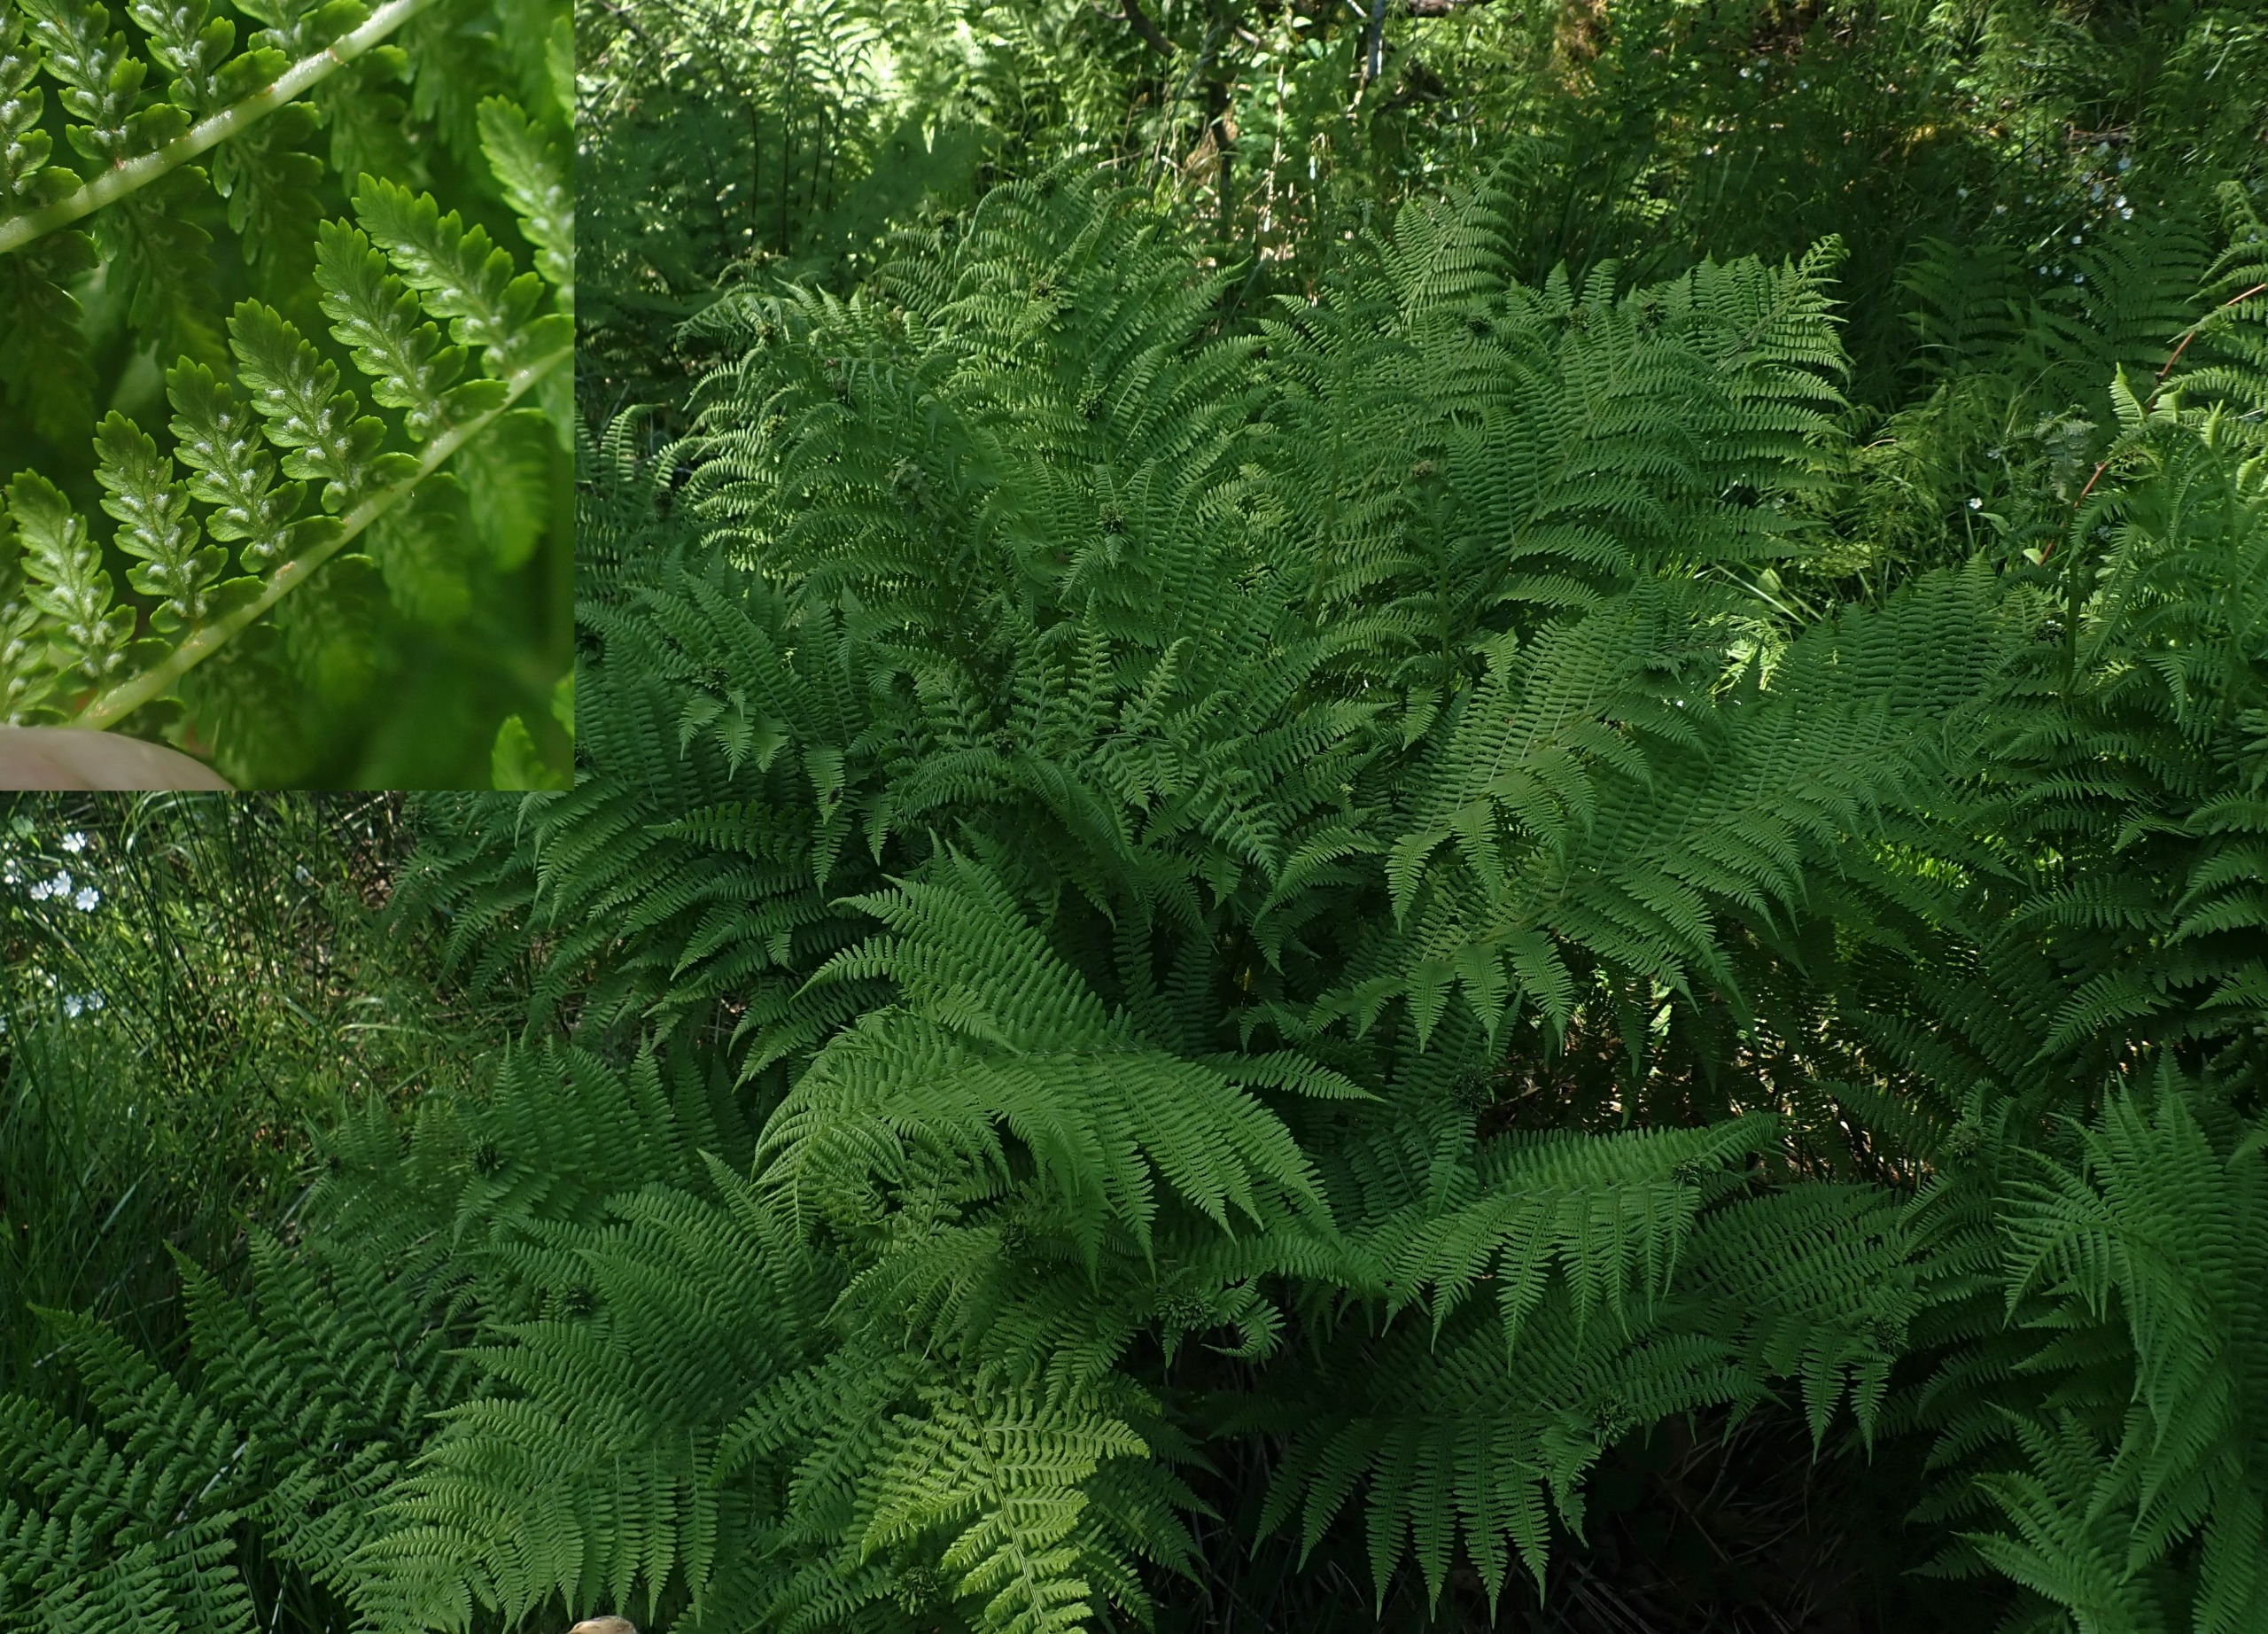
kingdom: Plantae
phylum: Tracheophyta
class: Polypodiopsida
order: Polypodiales
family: Athyriaceae
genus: Athyrium
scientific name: Athyrium filix-femina
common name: Fjerbregne
